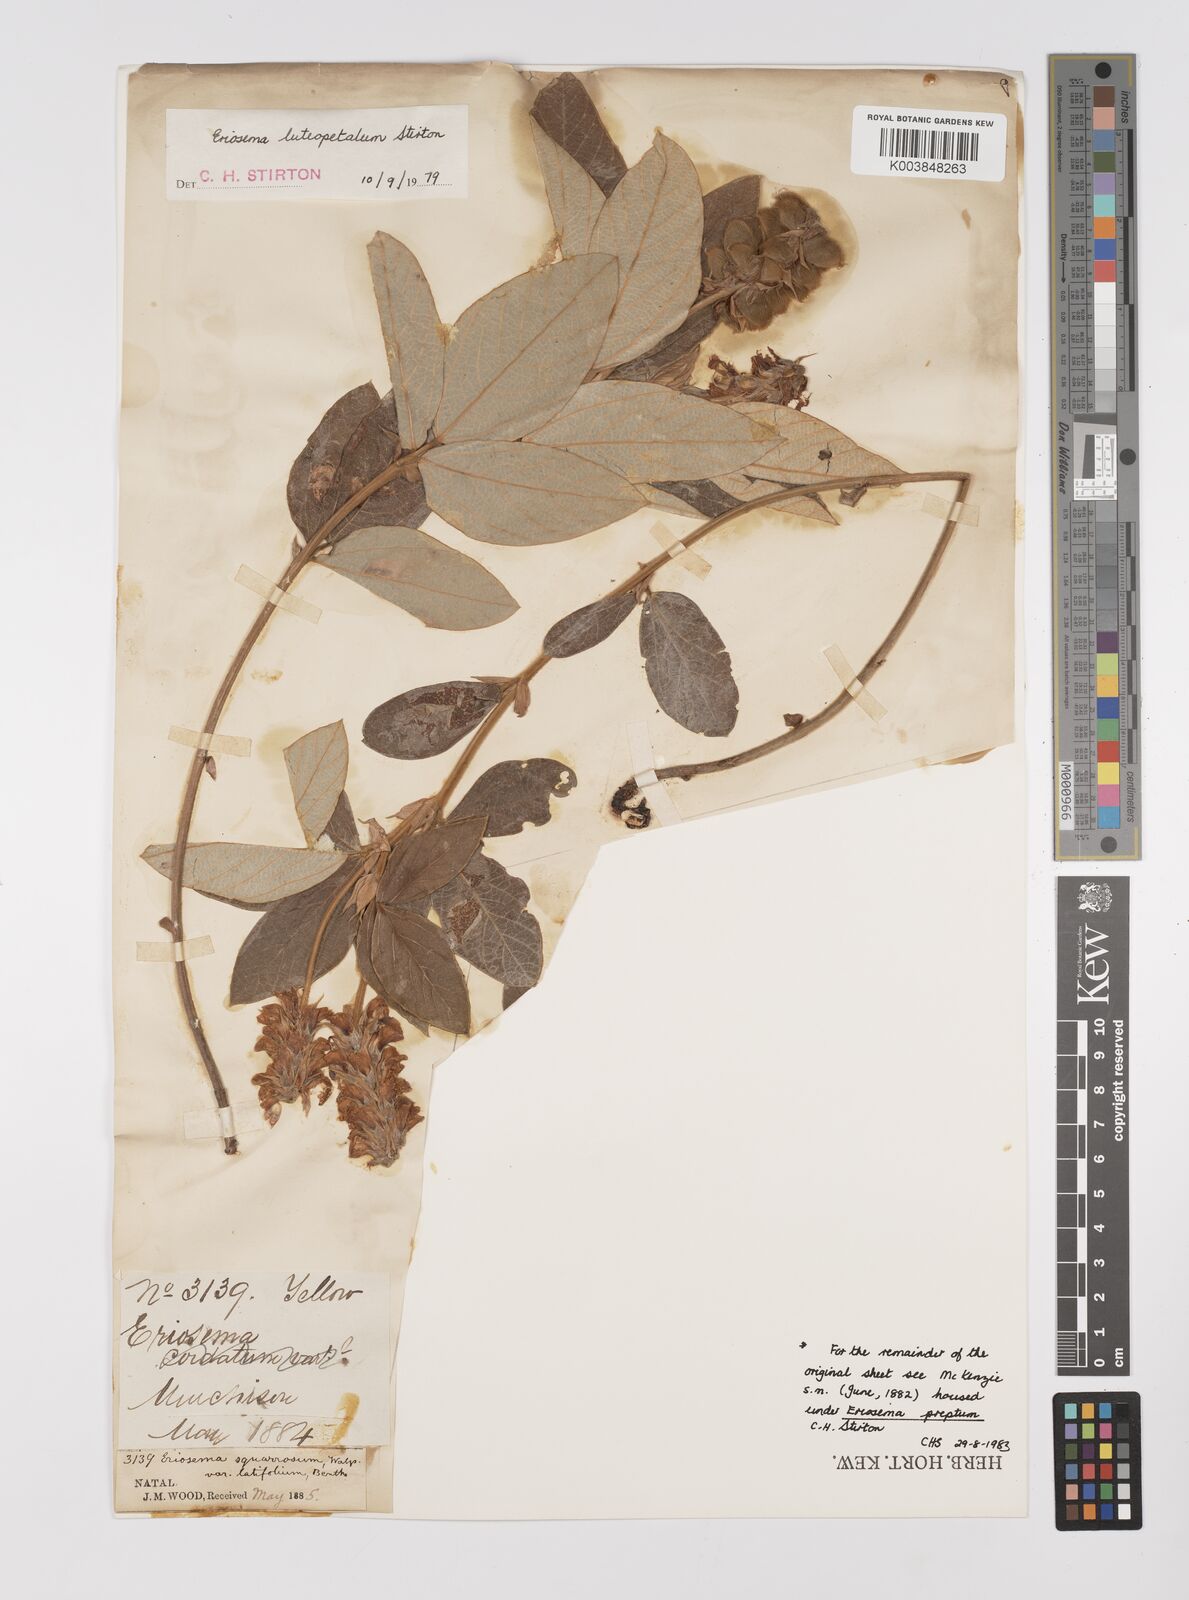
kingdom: Plantae
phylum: Tracheophyta
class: Magnoliopsida
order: Fabales
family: Fabaceae
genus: Eriosema
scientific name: Eriosema luteopetalum
